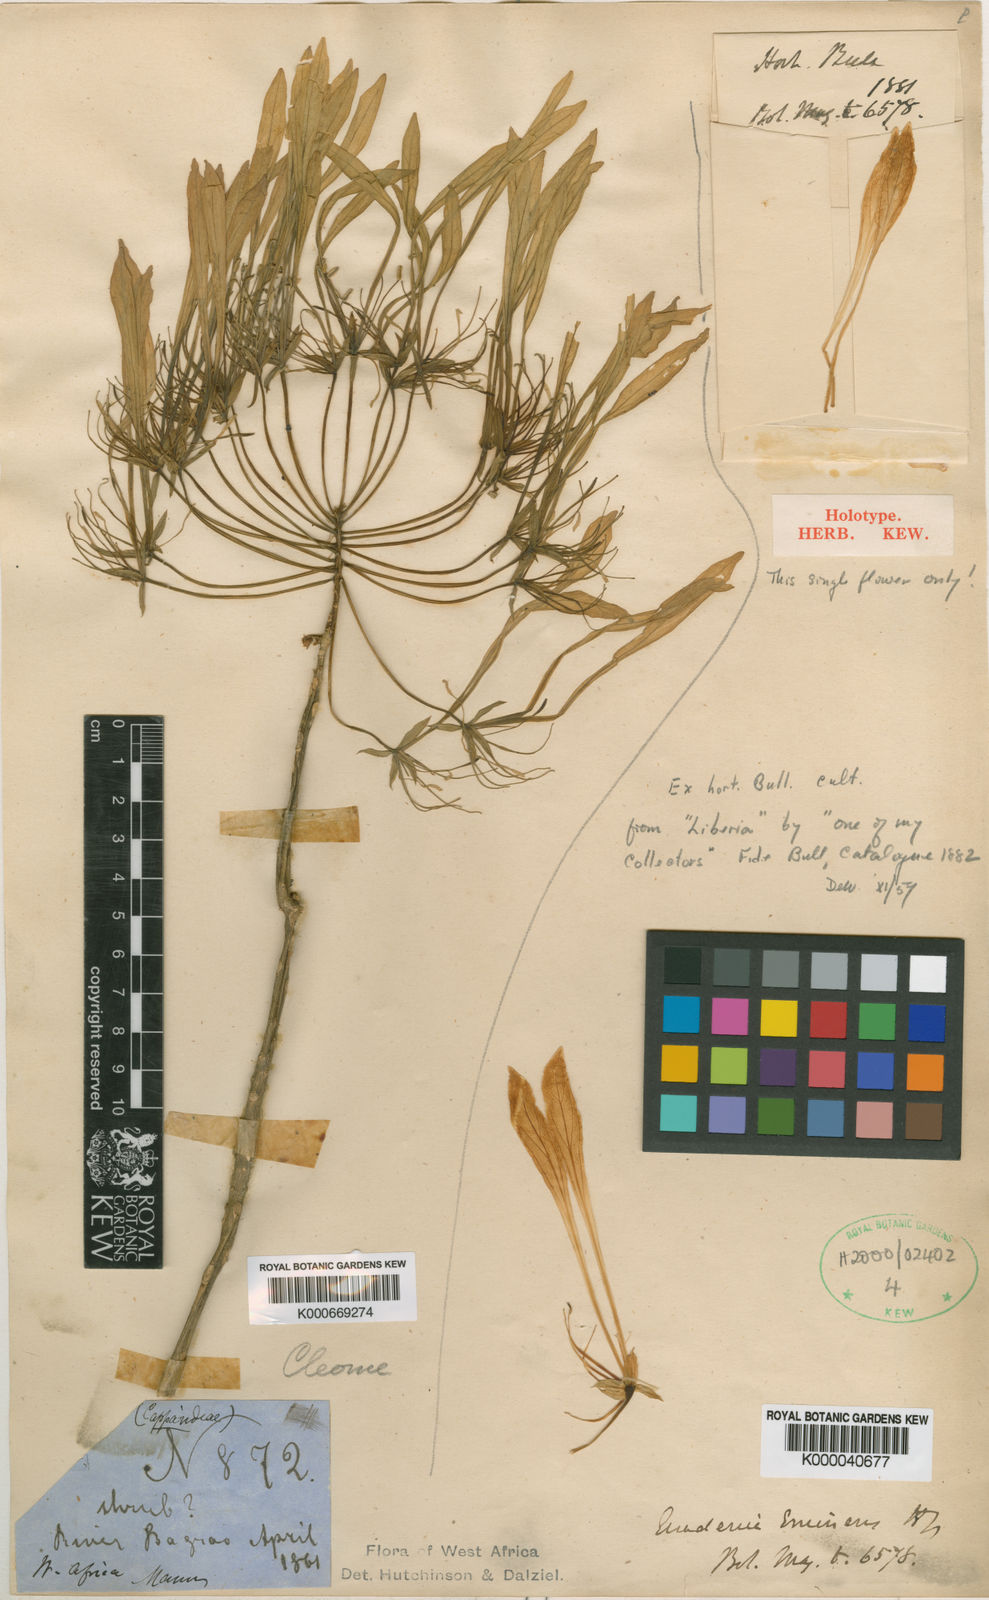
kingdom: Plantae
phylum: Tracheophyta
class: Magnoliopsida
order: Brassicales
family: Capparaceae
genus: Euadenia
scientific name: Euadenia eminens
